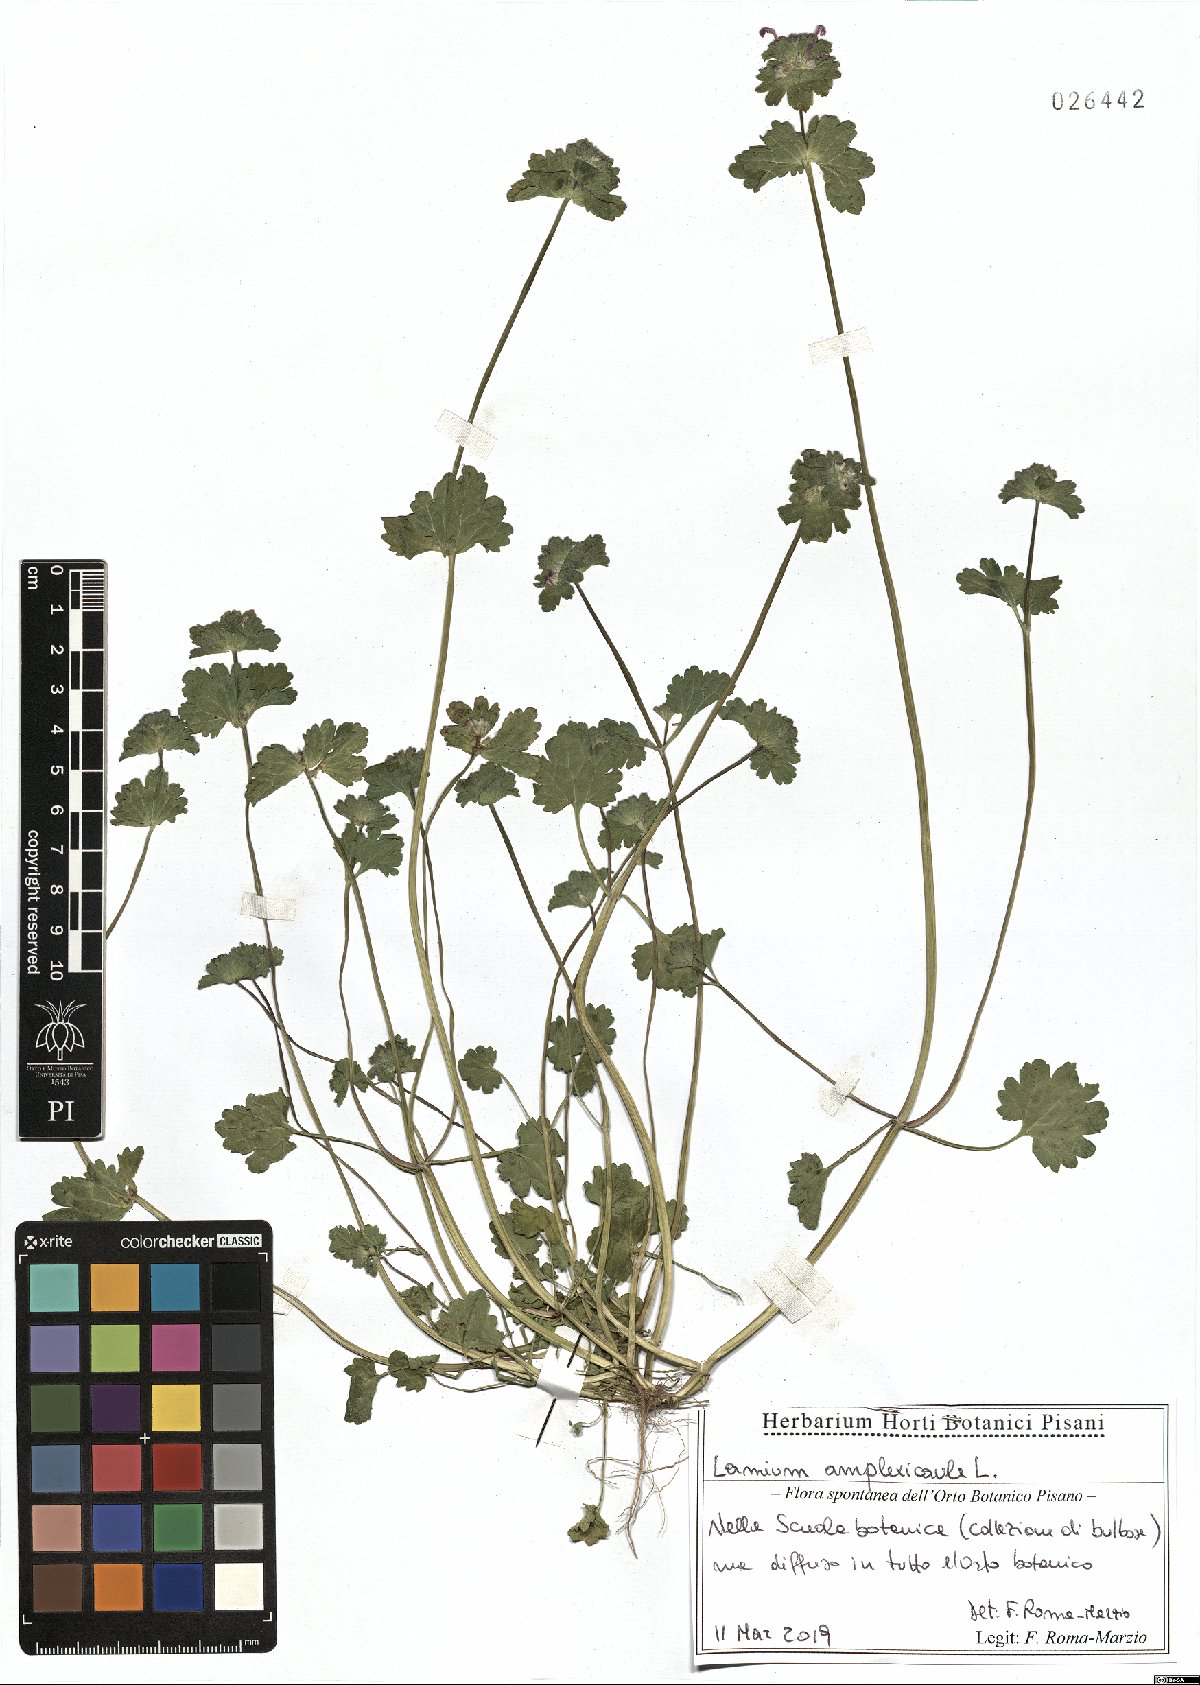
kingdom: Plantae
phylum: Tracheophyta
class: Magnoliopsida
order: Lamiales
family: Lamiaceae
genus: Lamium
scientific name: Lamium amplexicaule
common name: Henbit dead-nettle
